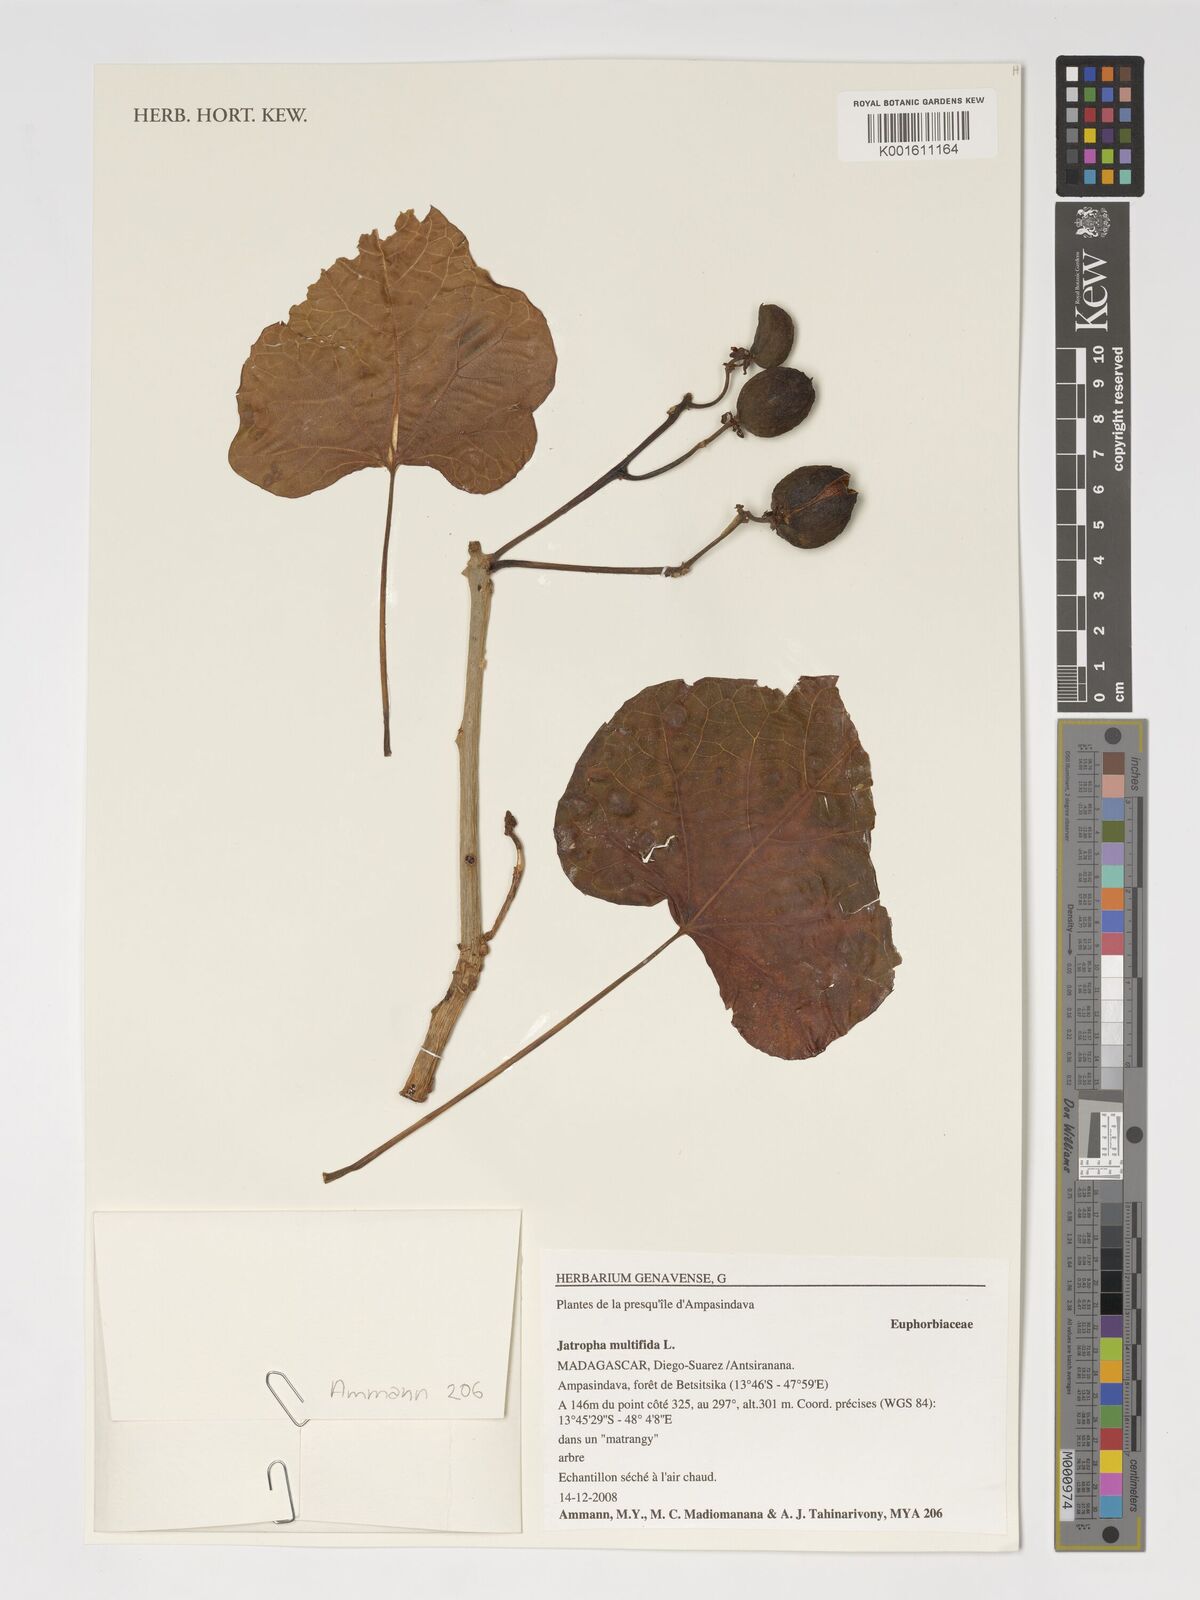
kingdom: Plantae
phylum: Tracheophyta
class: Magnoliopsida
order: Malpighiales
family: Euphorbiaceae
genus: Jatropha
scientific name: Jatropha multifida
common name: Coralbush
